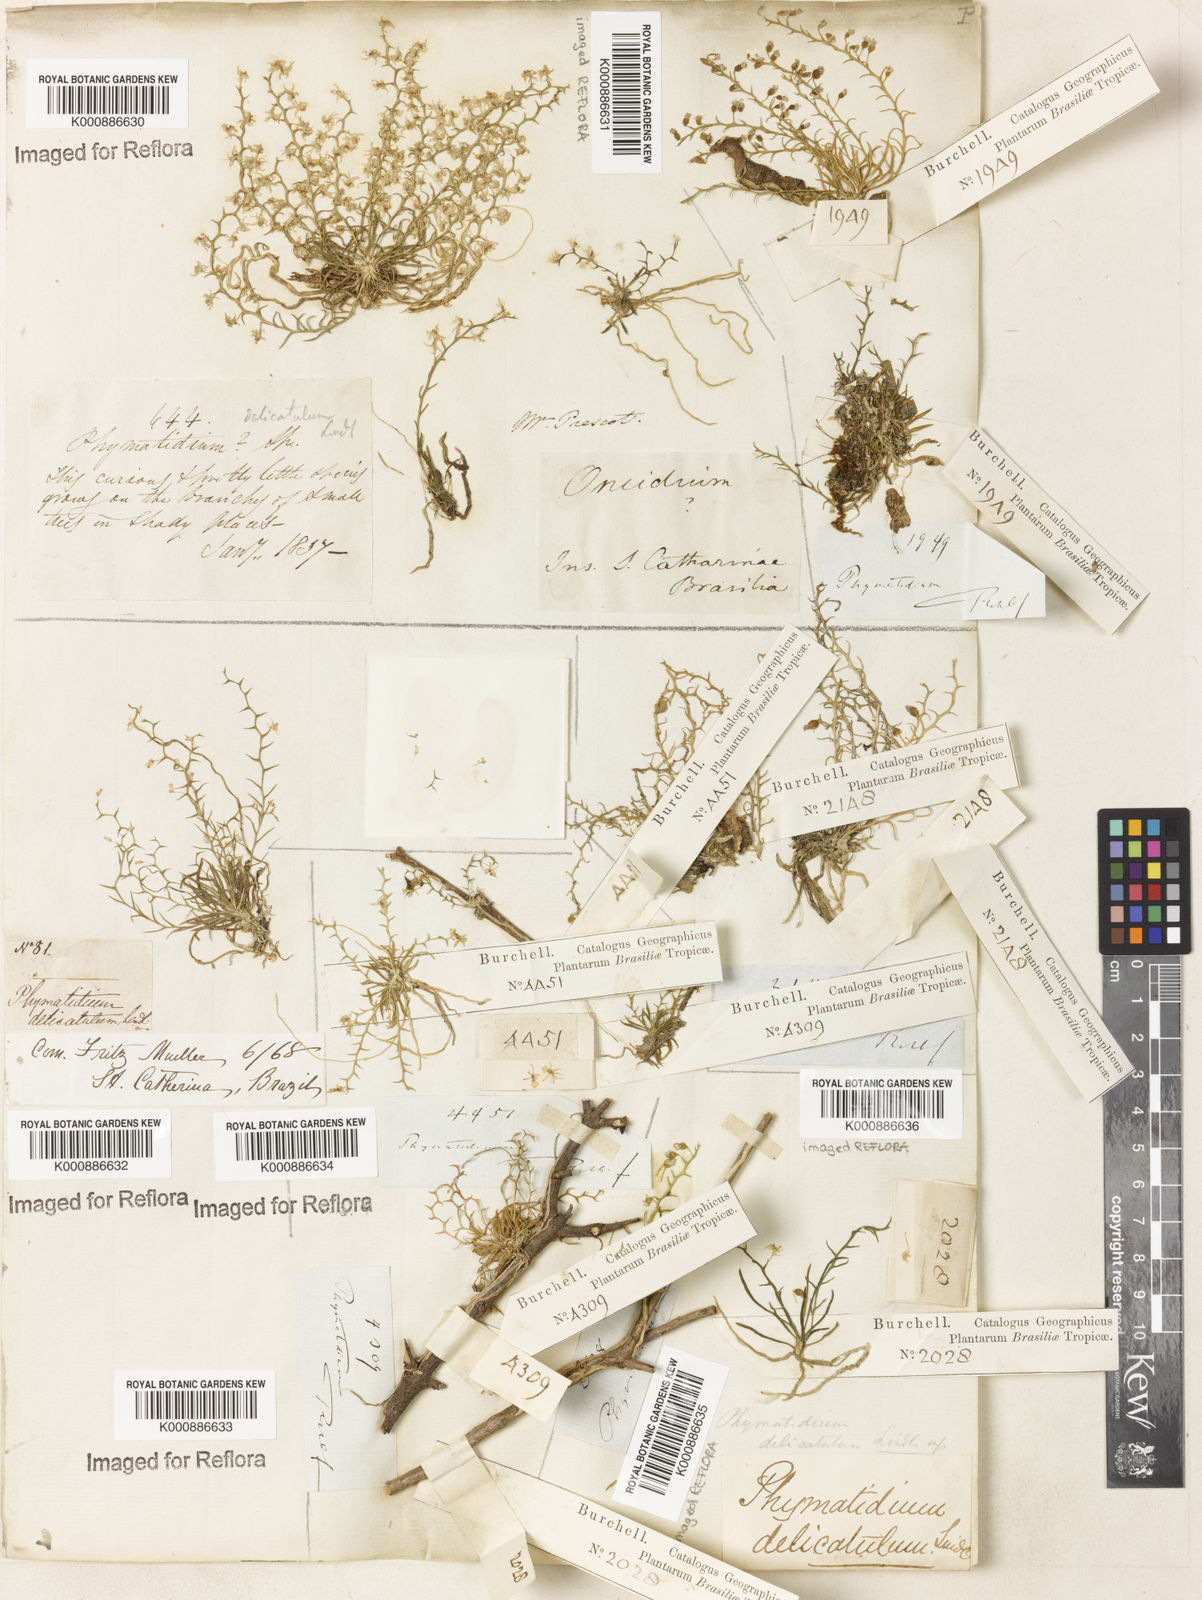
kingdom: Plantae
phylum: Tracheophyta
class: Liliopsida
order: Asparagales
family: Orchidaceae
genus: Phymatidium
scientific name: Phymatidium
